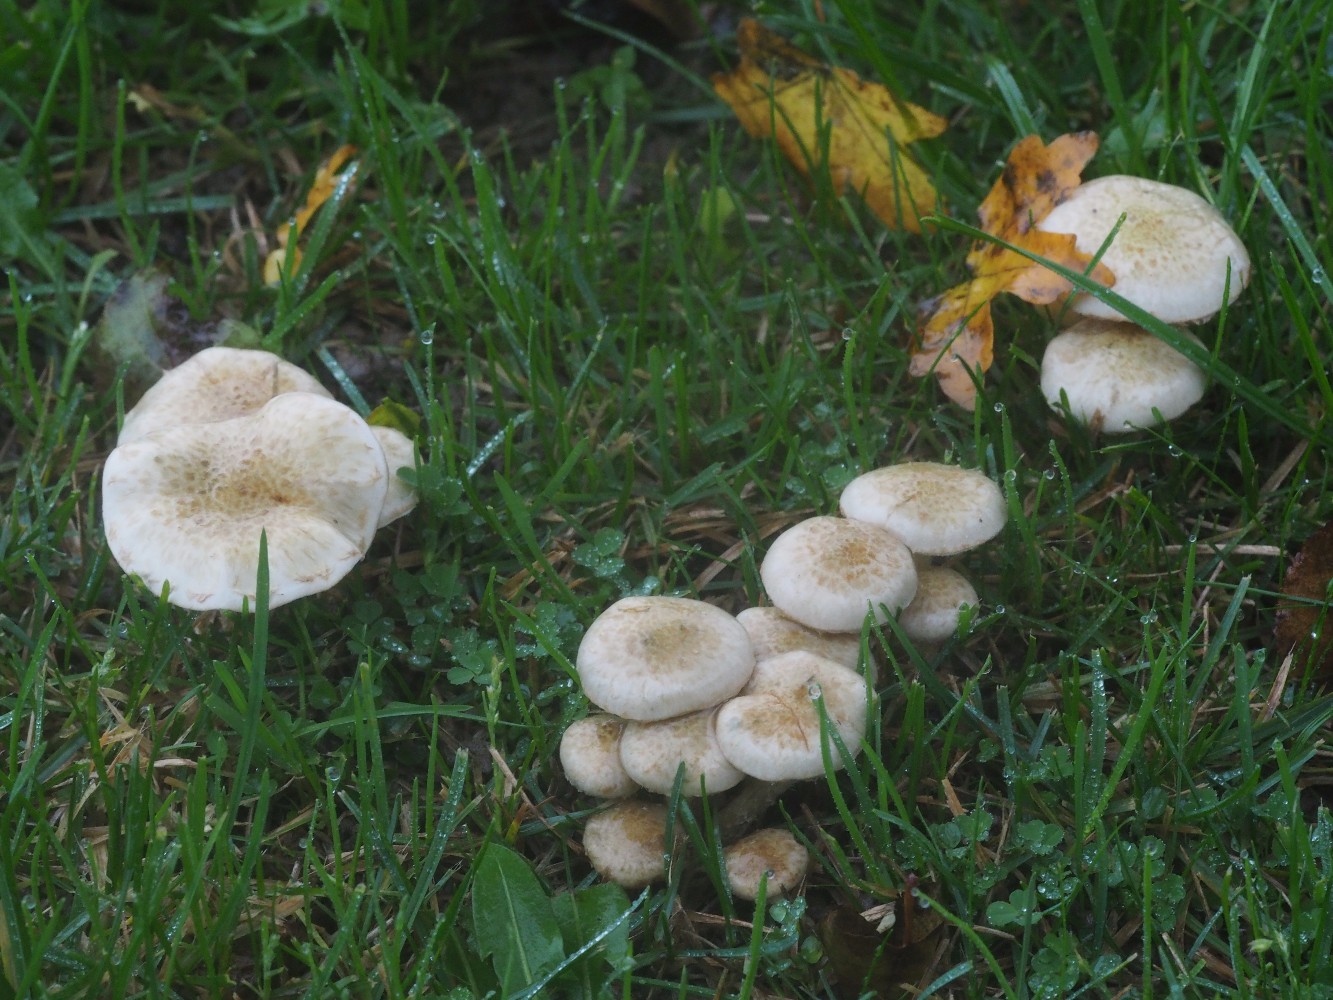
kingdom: Fungi
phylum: Basidiomycota
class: Agaricomycetes
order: Agaricales
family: Strophariaceae
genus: Pholiota
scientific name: Pholiota gummosa
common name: grøngul skælhat
